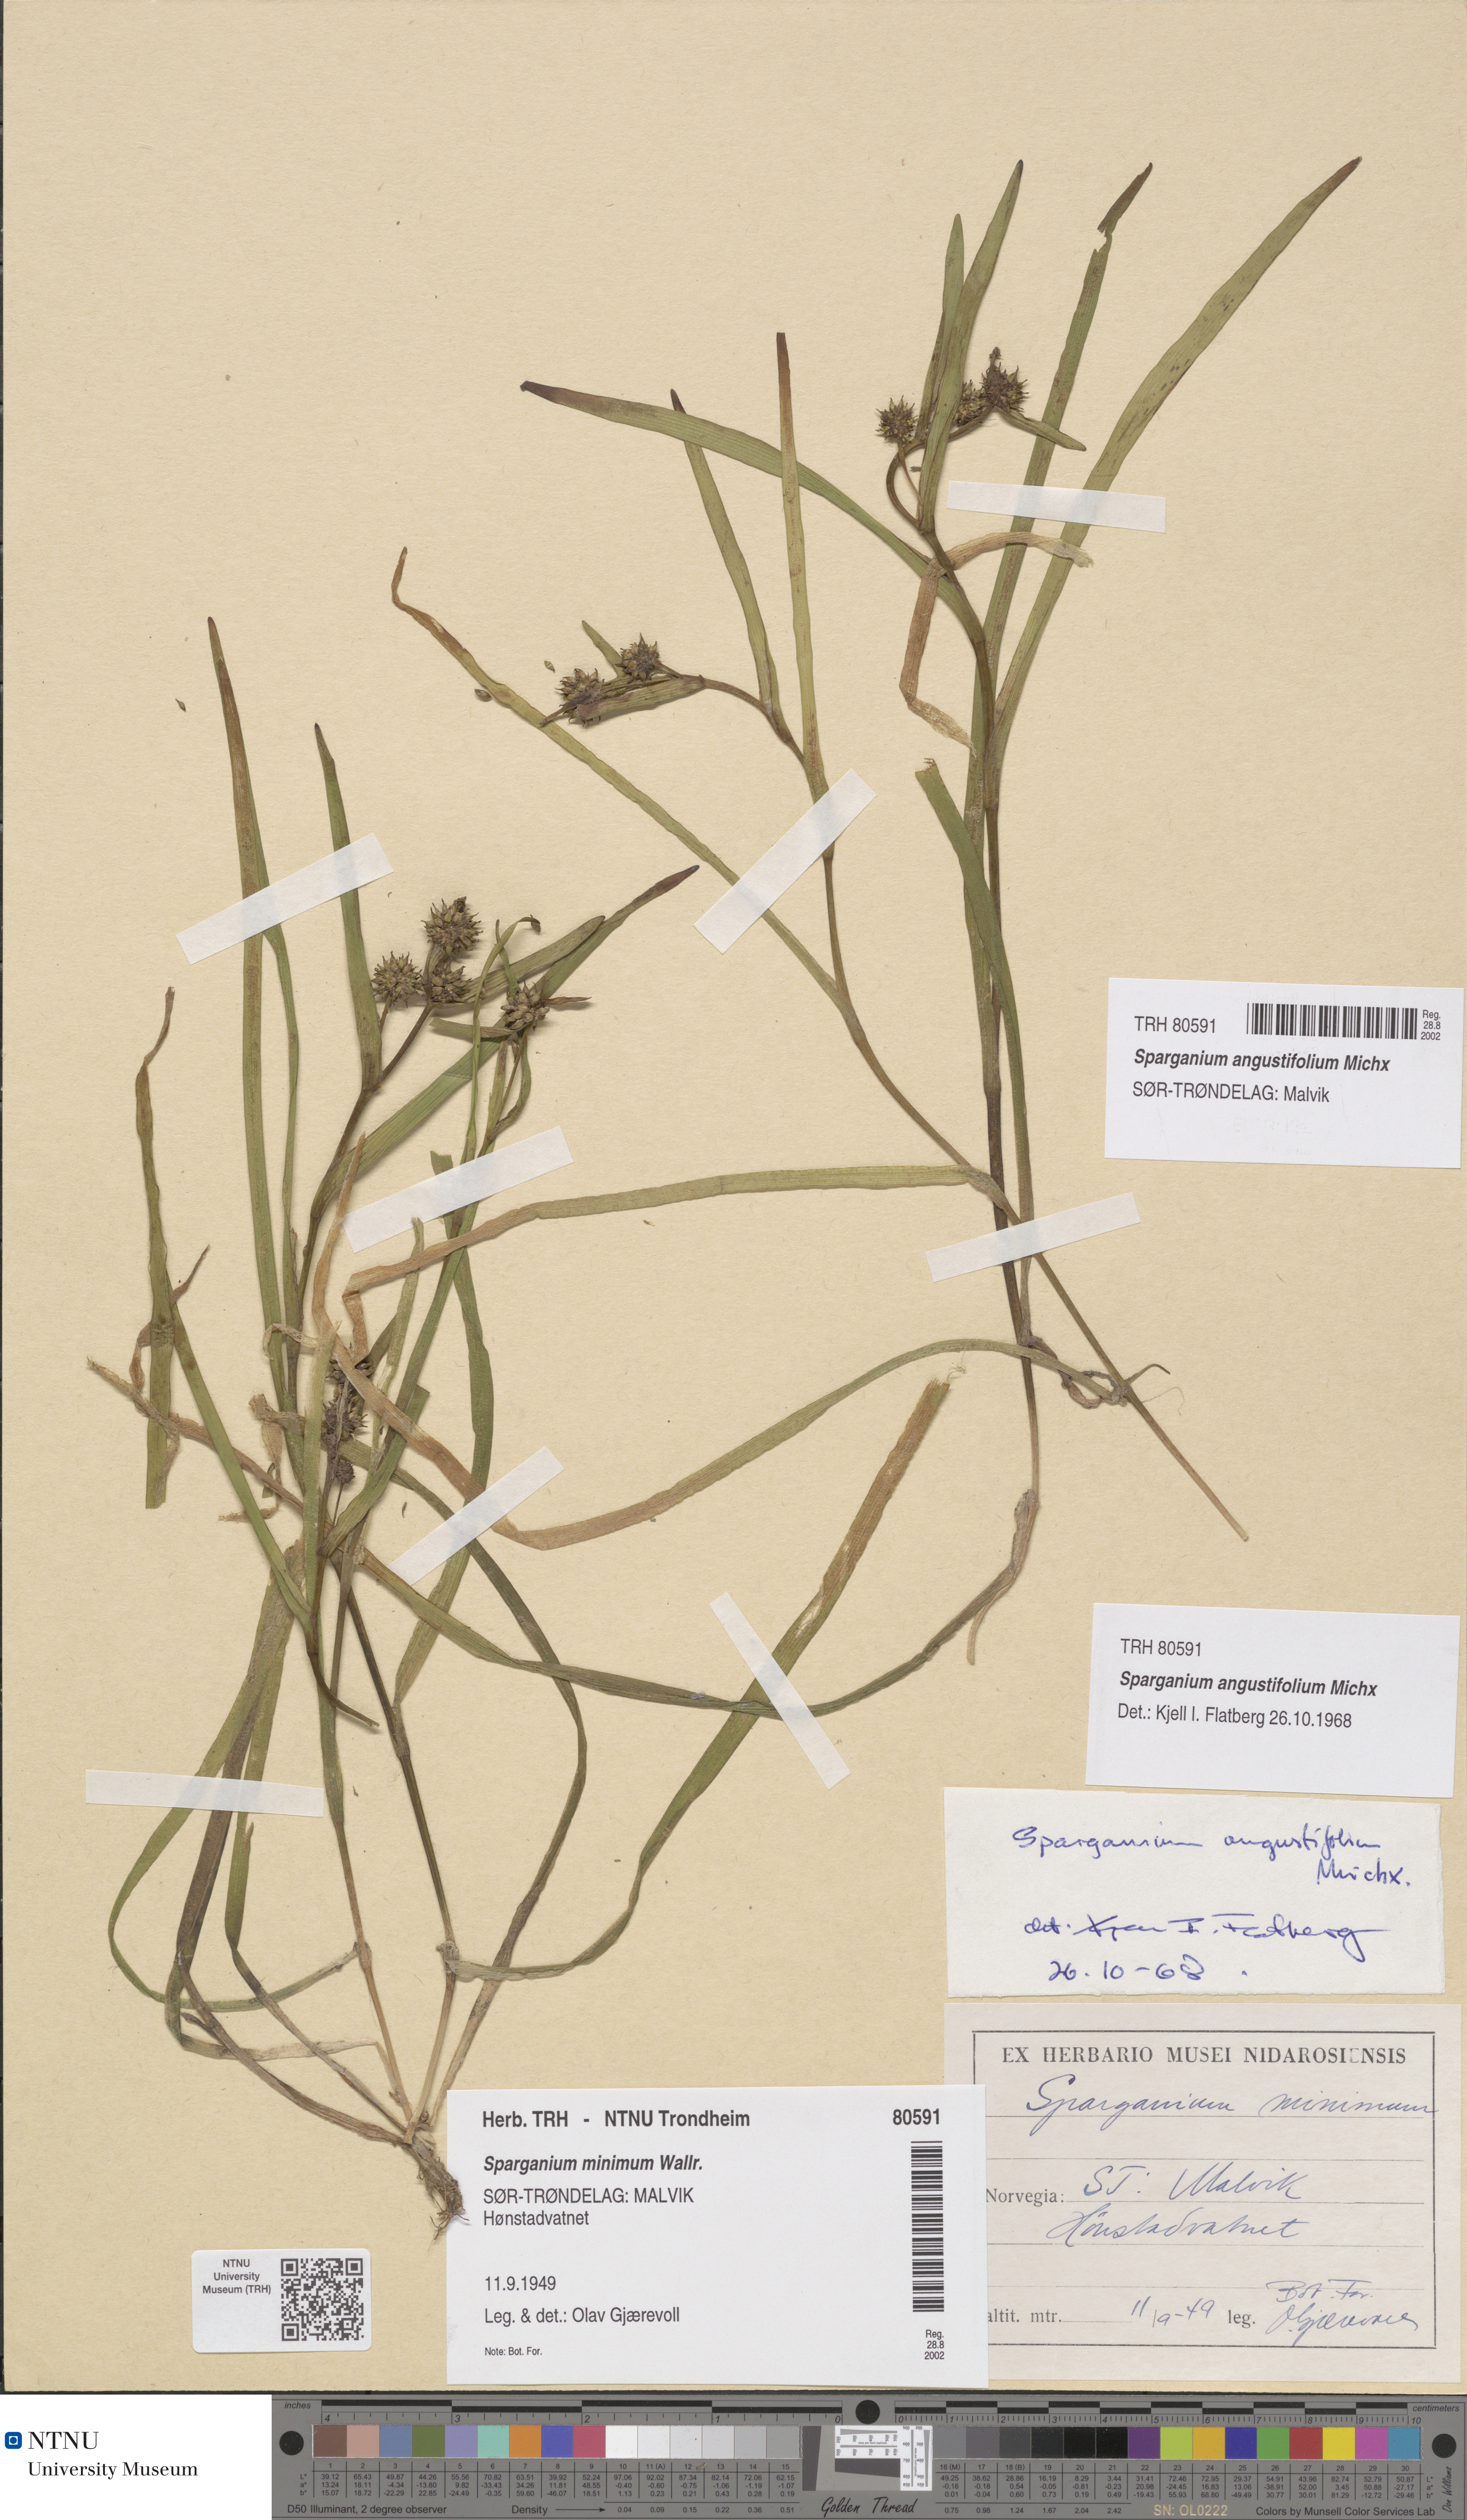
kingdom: Plantae
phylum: Tracheophyta
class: Liliopsida
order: Poales
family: Typhaceae
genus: Sparganium
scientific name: Sparganium angustifolium
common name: Floating bur-reed
